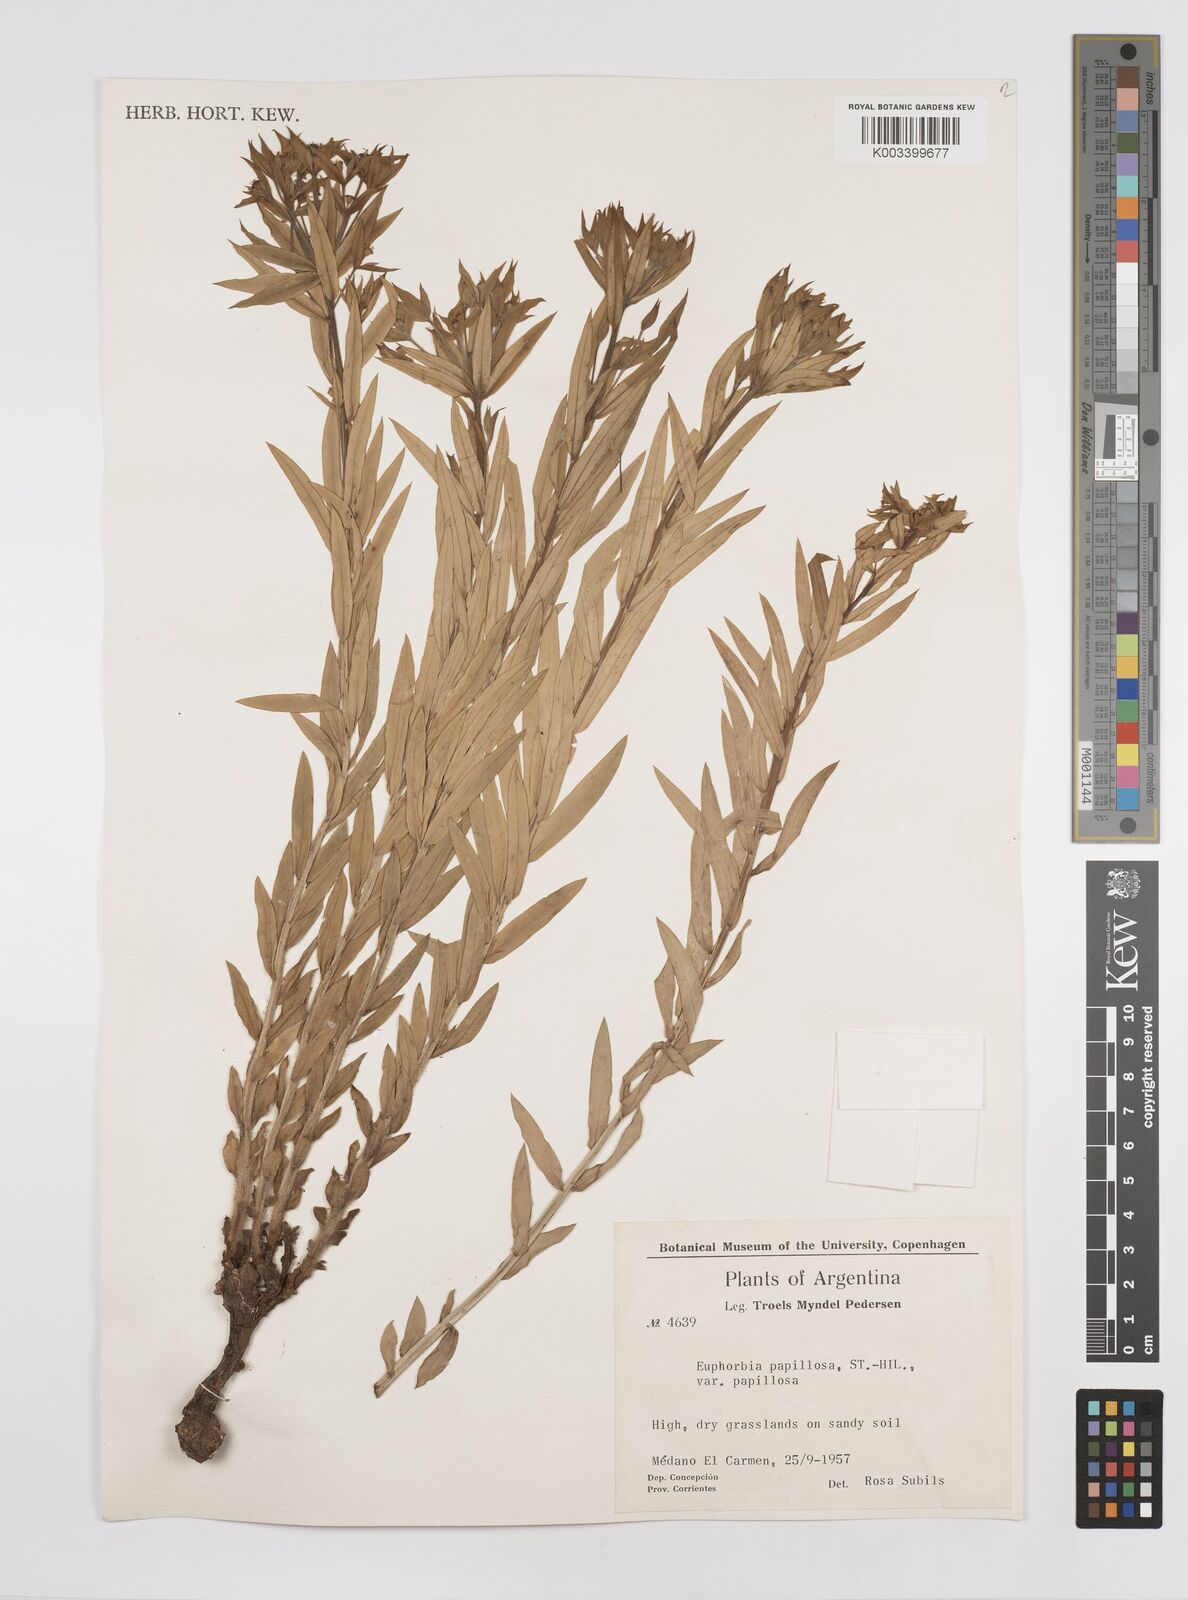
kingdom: Plantae
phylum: Tracheophyta
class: Magnoliopsida
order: Malpighiales
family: Euphorbiaceae
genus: Euphorbia
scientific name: Euphorbia
